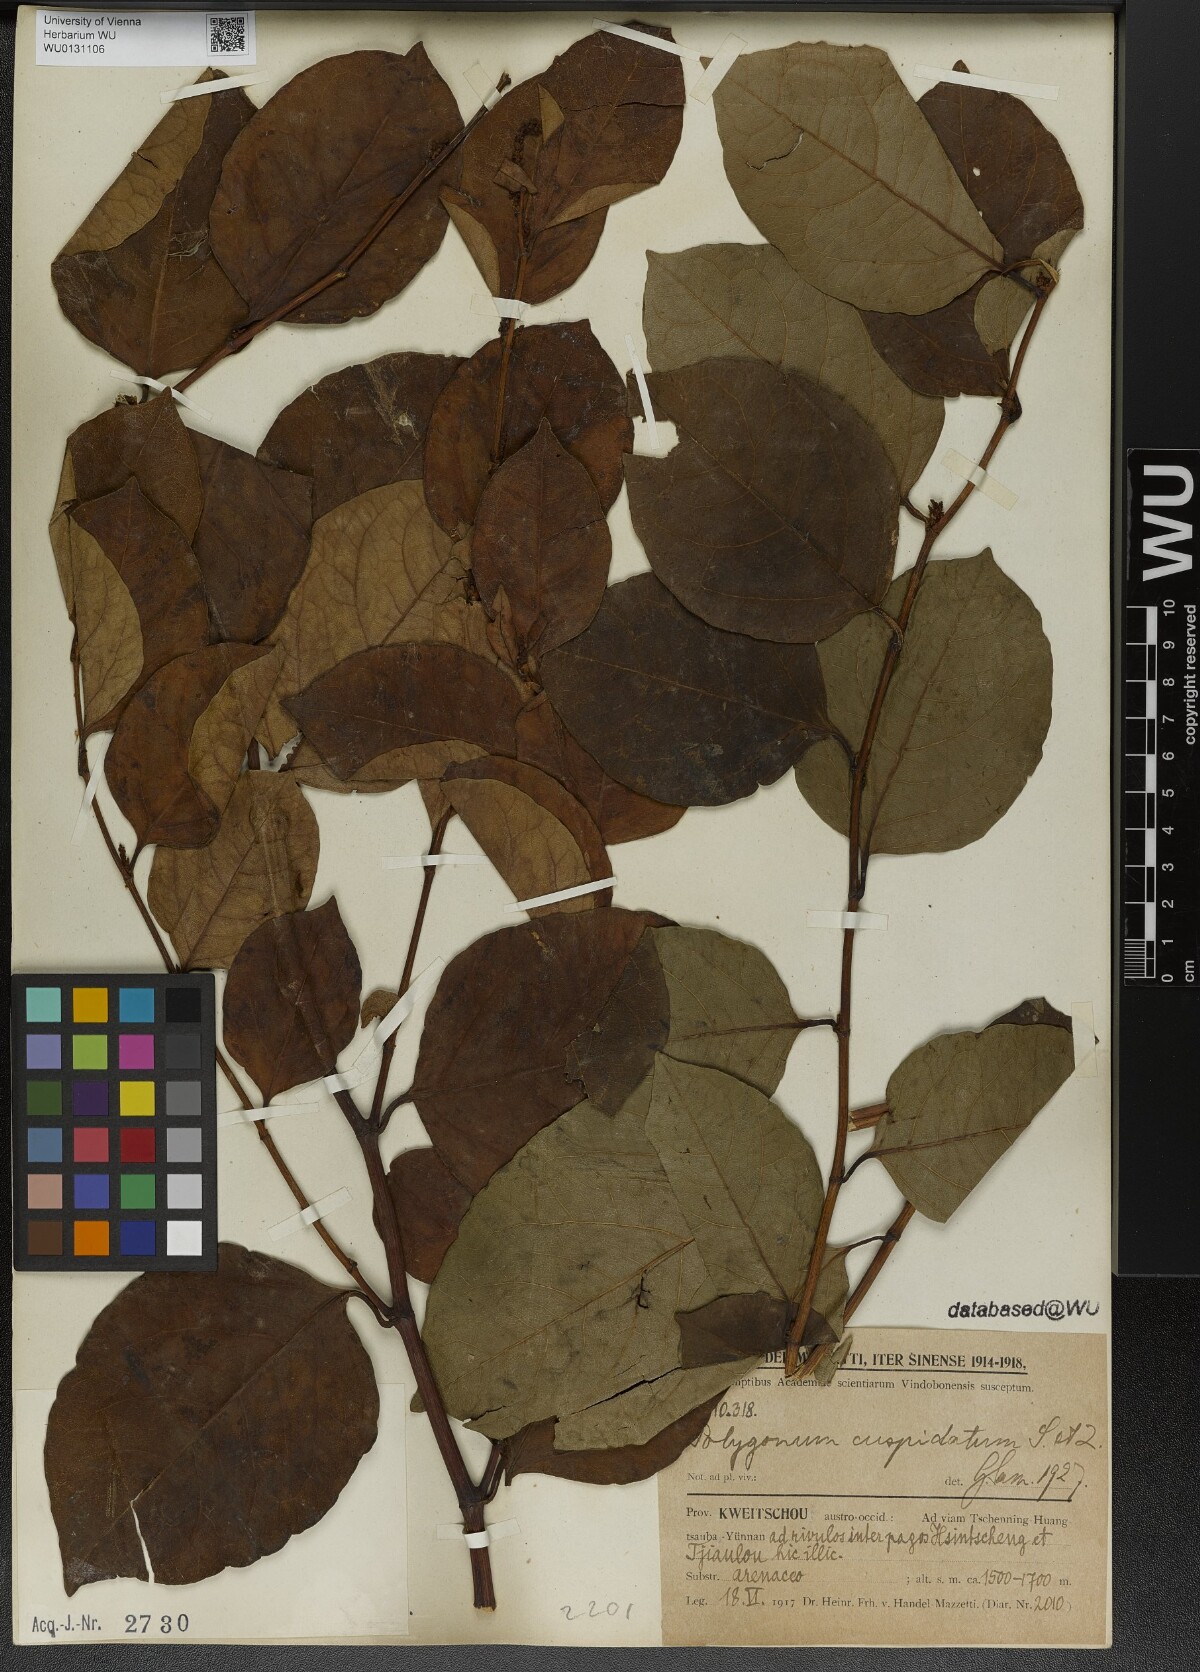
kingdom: Plantae
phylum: Tracheophyta
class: Magnoliopsida
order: Caryophyllales
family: Polygonaceae
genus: Reynoutria
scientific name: Reynoutria japonica
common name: Japanese knotweed
